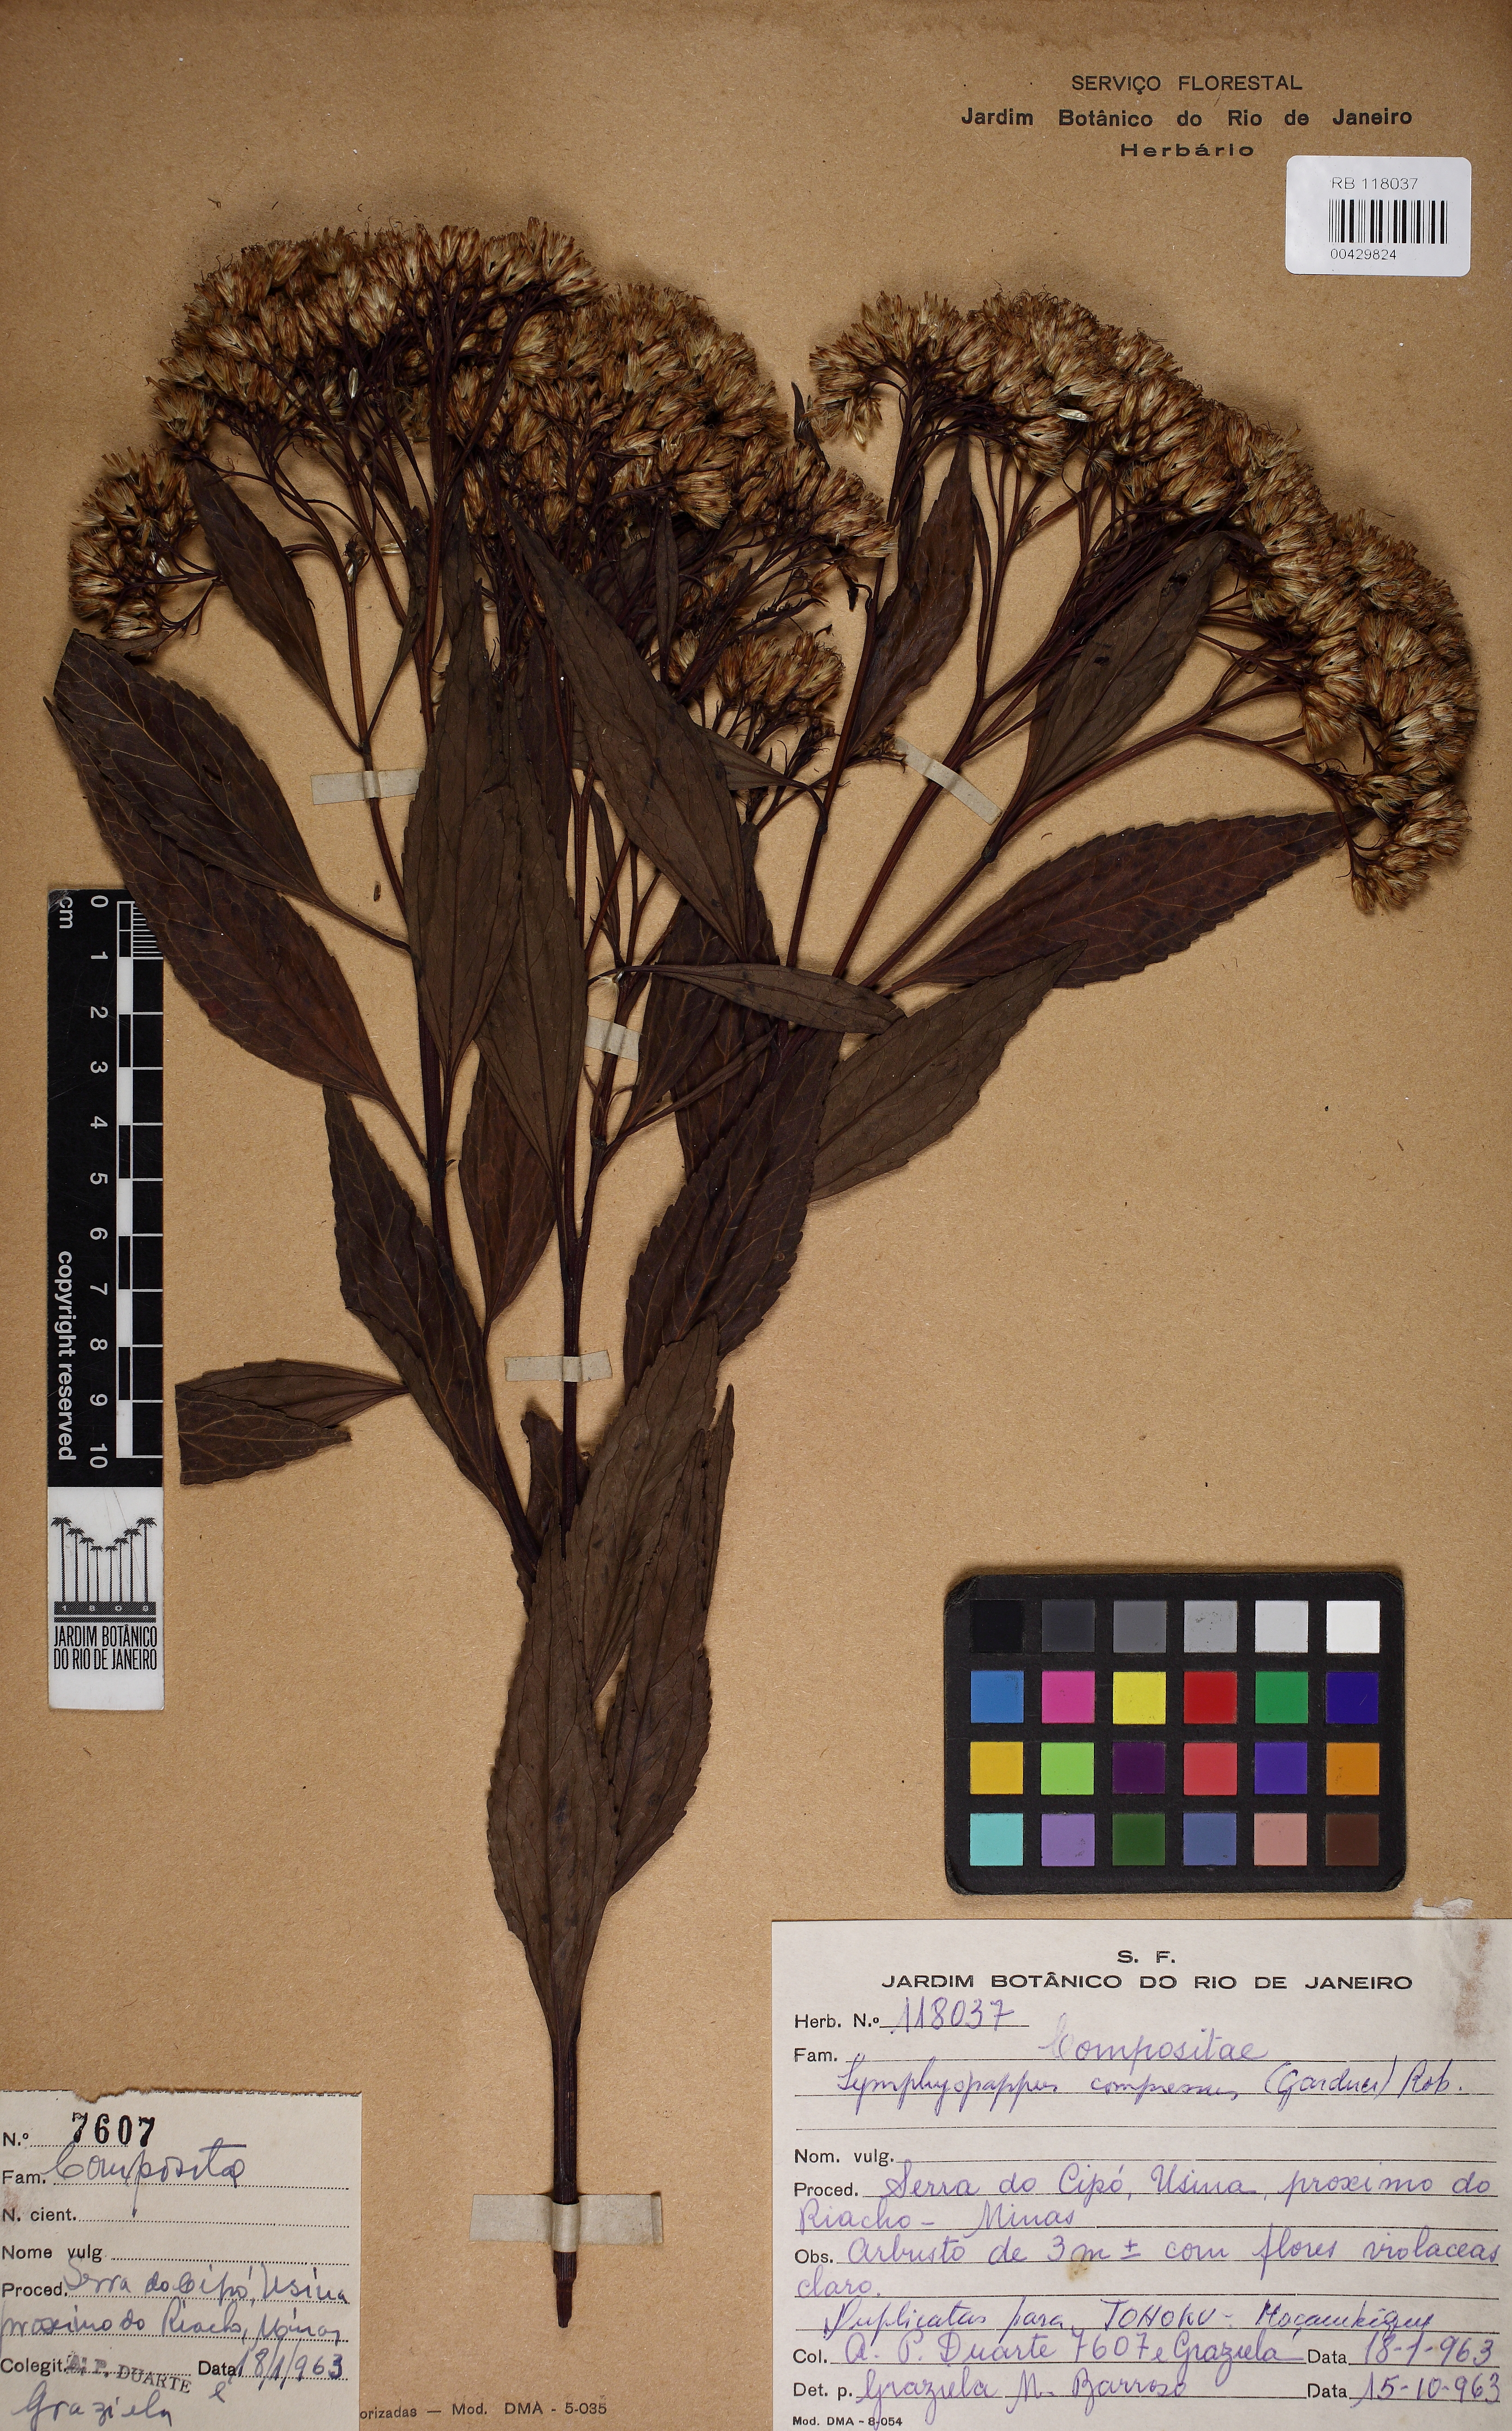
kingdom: Plantae
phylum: Tracheophyta
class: Magnoliopsida
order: Asterales
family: Asteraceae
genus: Symphyopappus
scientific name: Symphyopappus compressus
